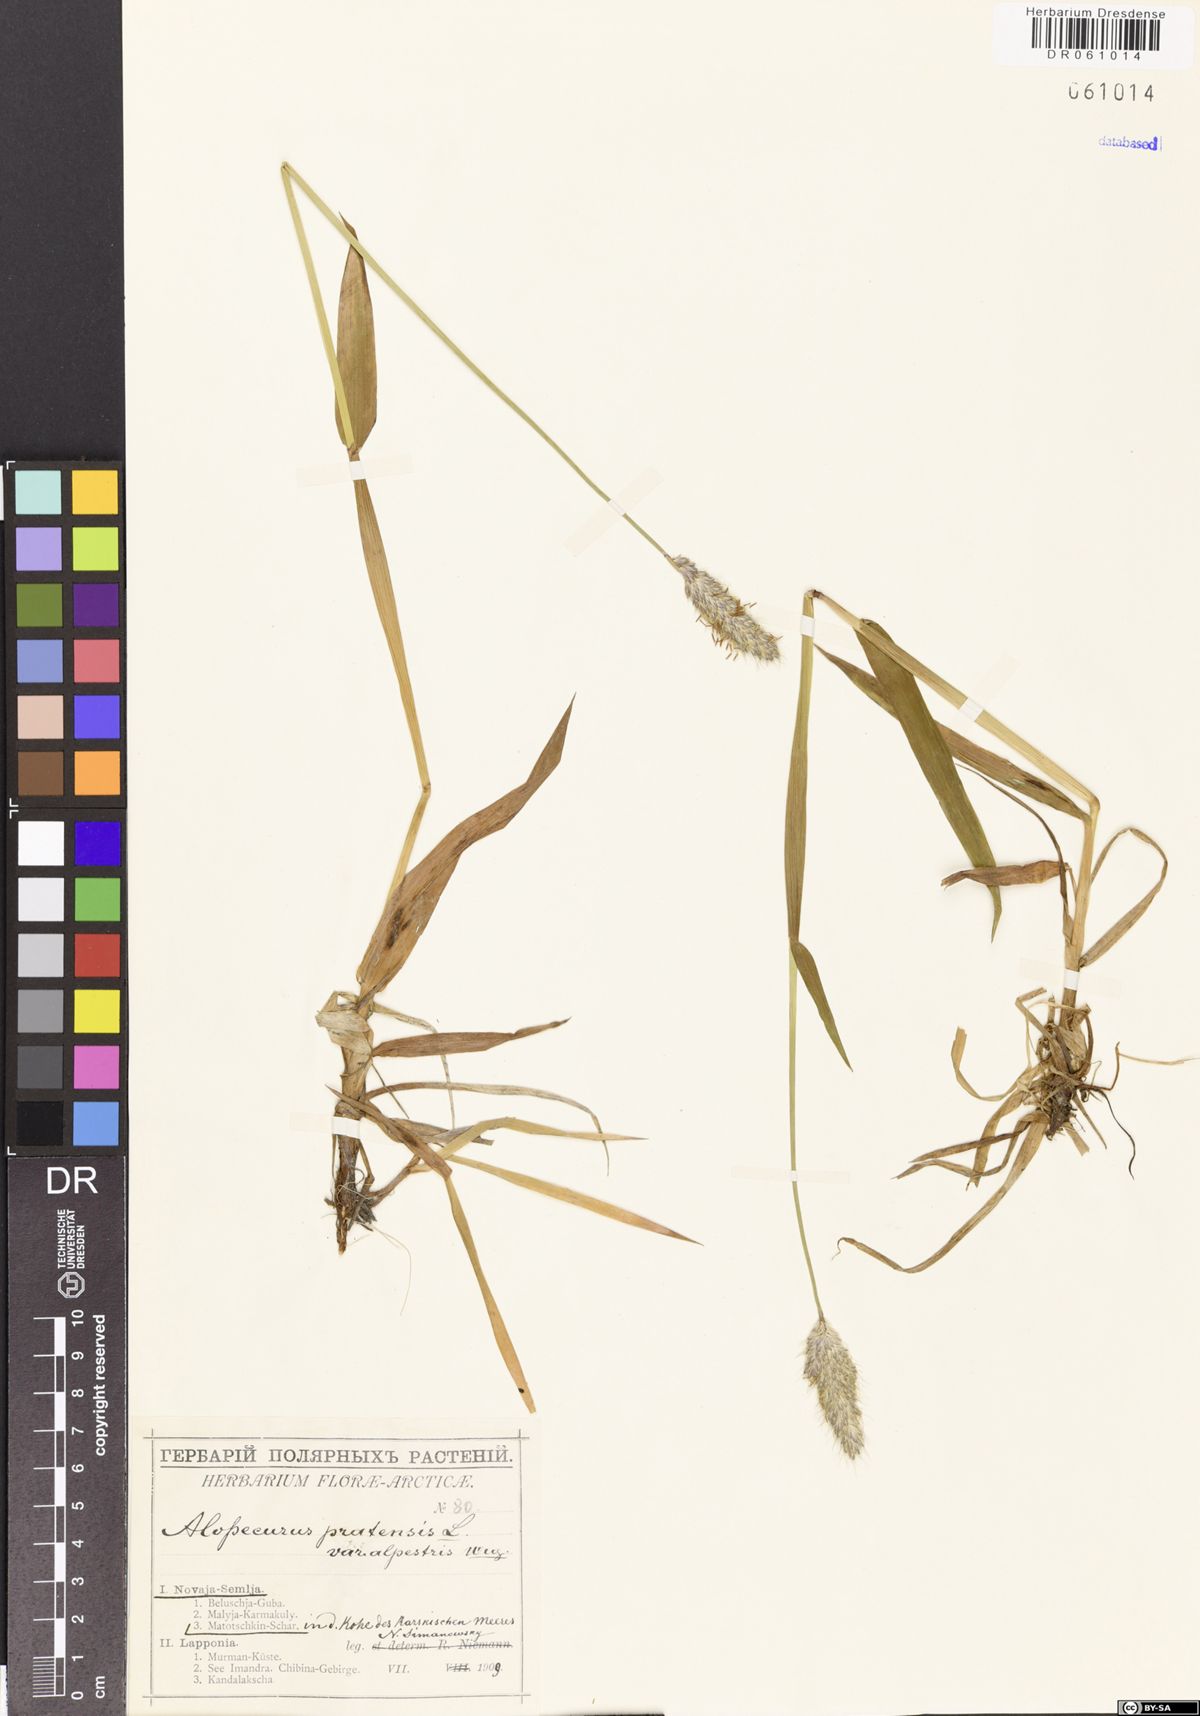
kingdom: Plantae
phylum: Tracheophyta
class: Liliopsida
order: Poales
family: Poaceae
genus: Alopecurus
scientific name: Alopecurus pratensis
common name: Meadow foxtail
